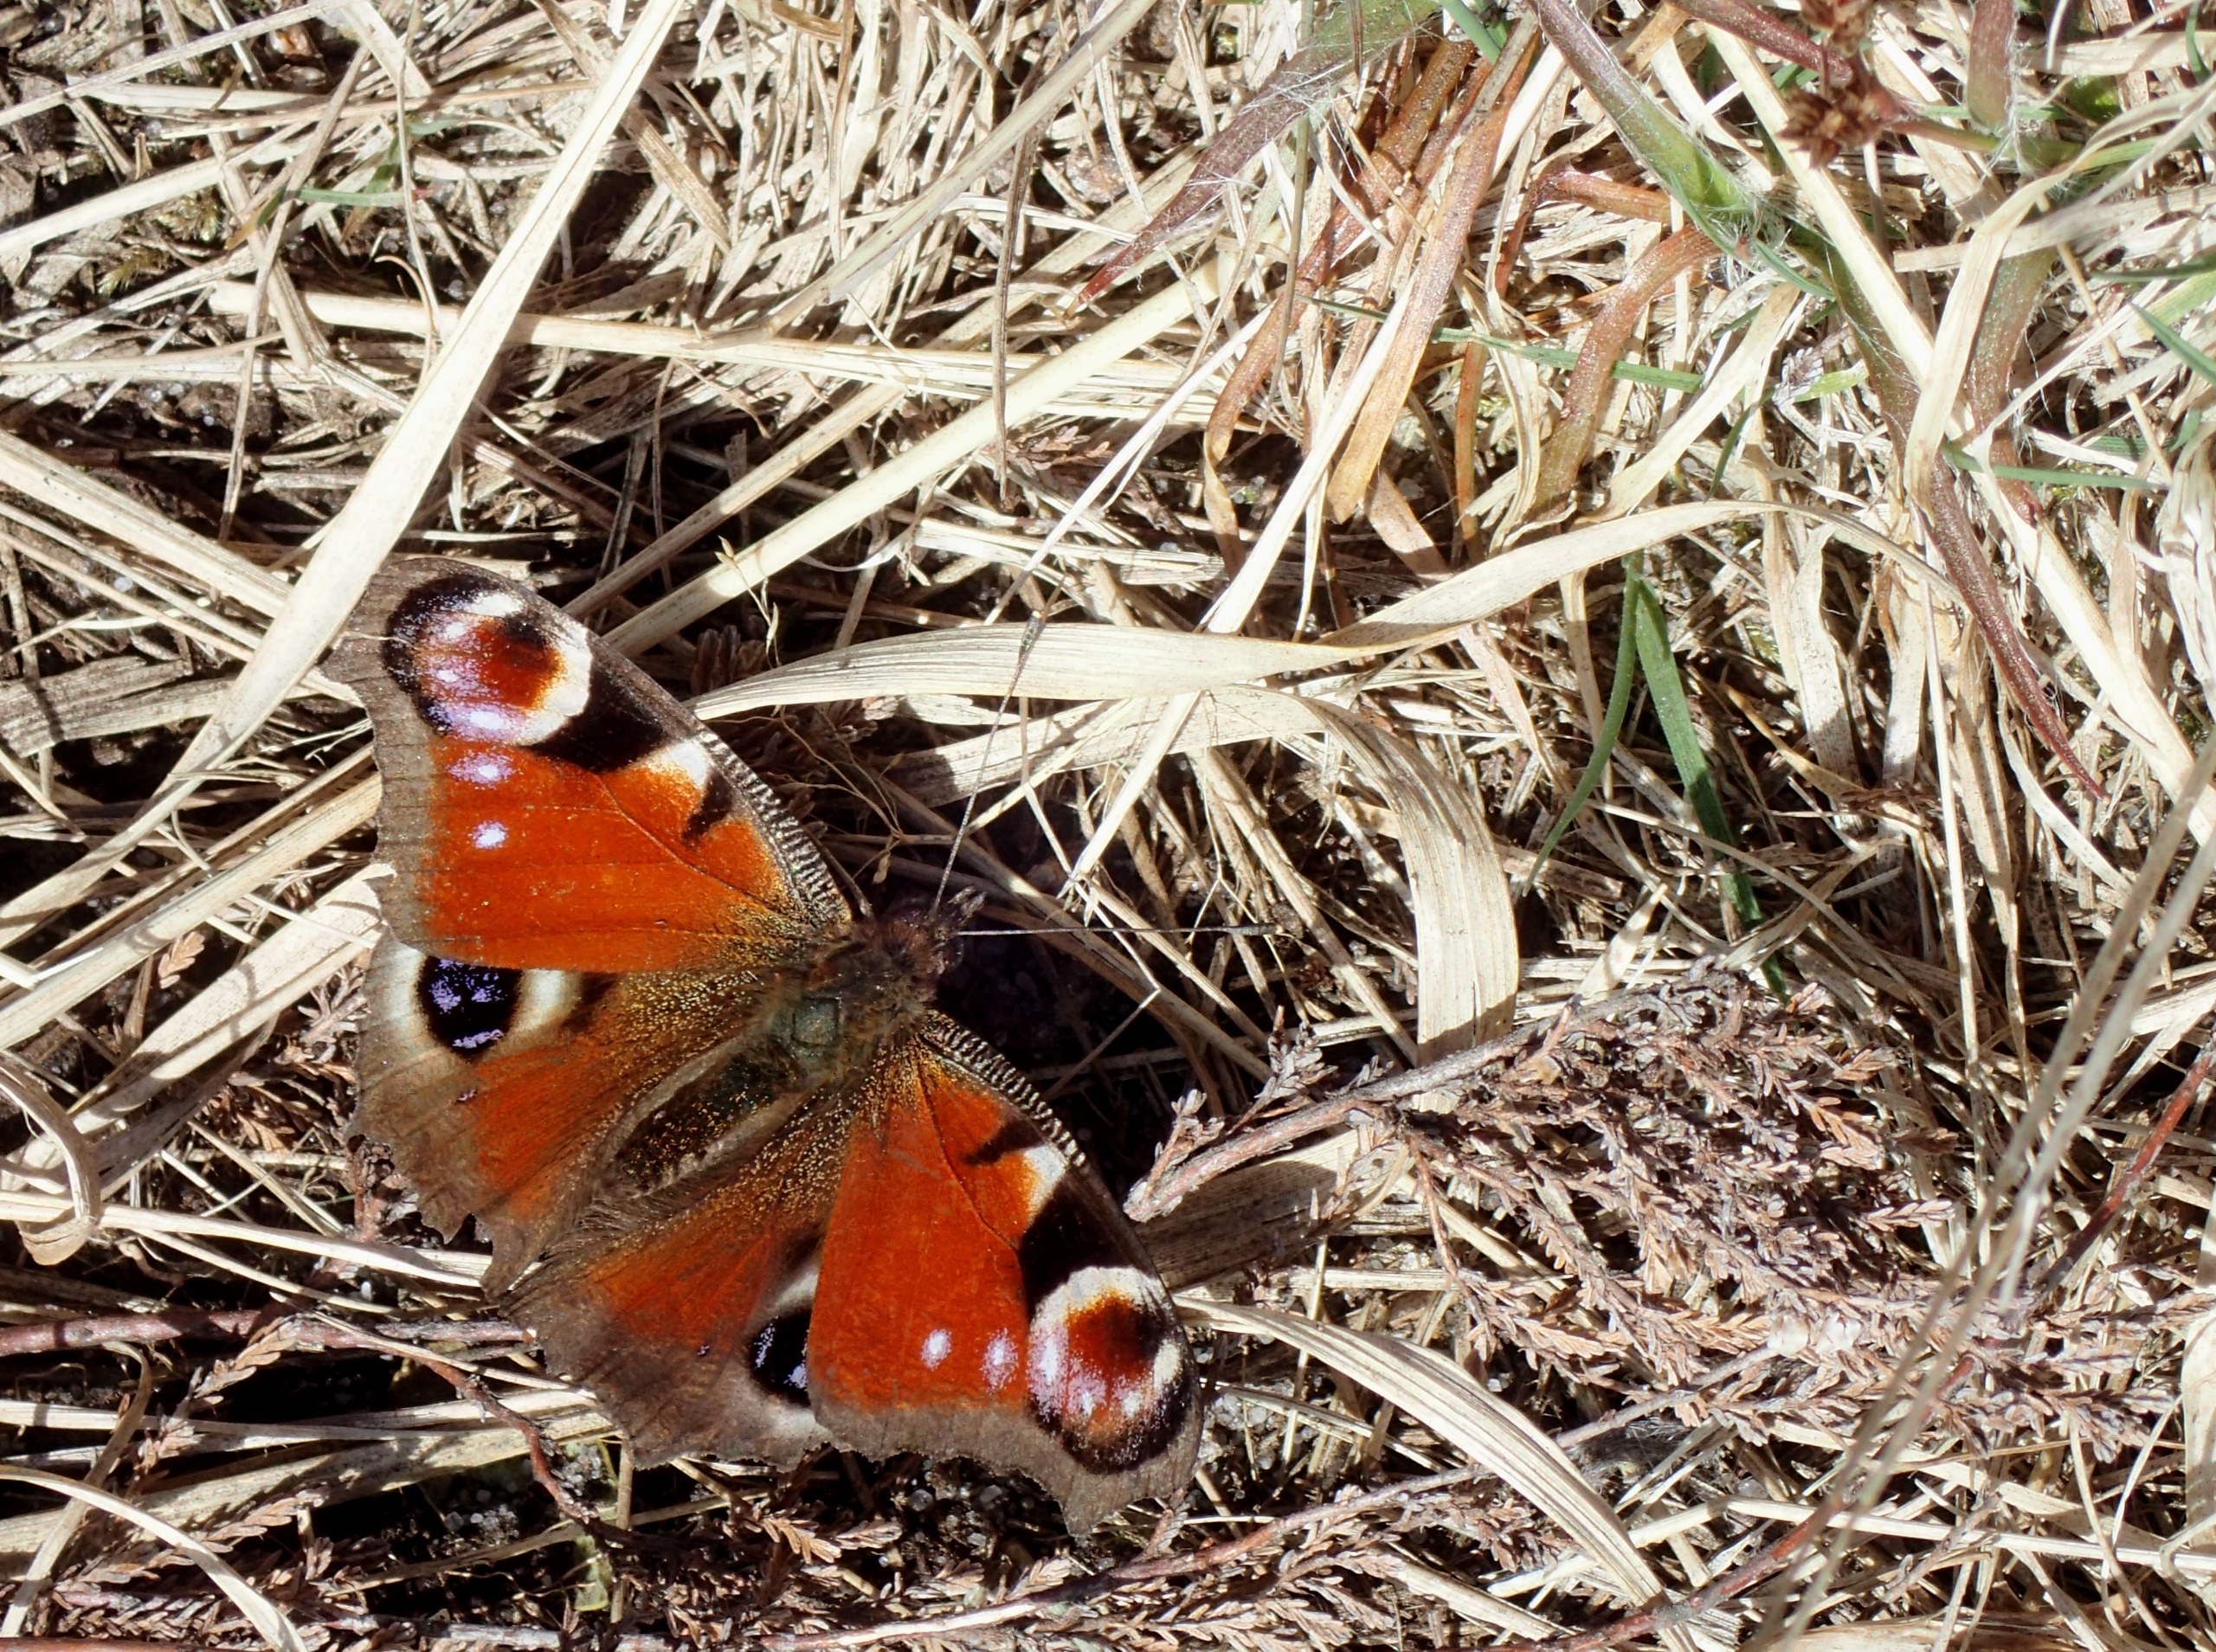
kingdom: Animalia
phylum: Arthropoda
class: Insecta
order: Lepidoptera
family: Nymphalidae
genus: Aglais
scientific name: Aglais io
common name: Dagpåfugleøje
